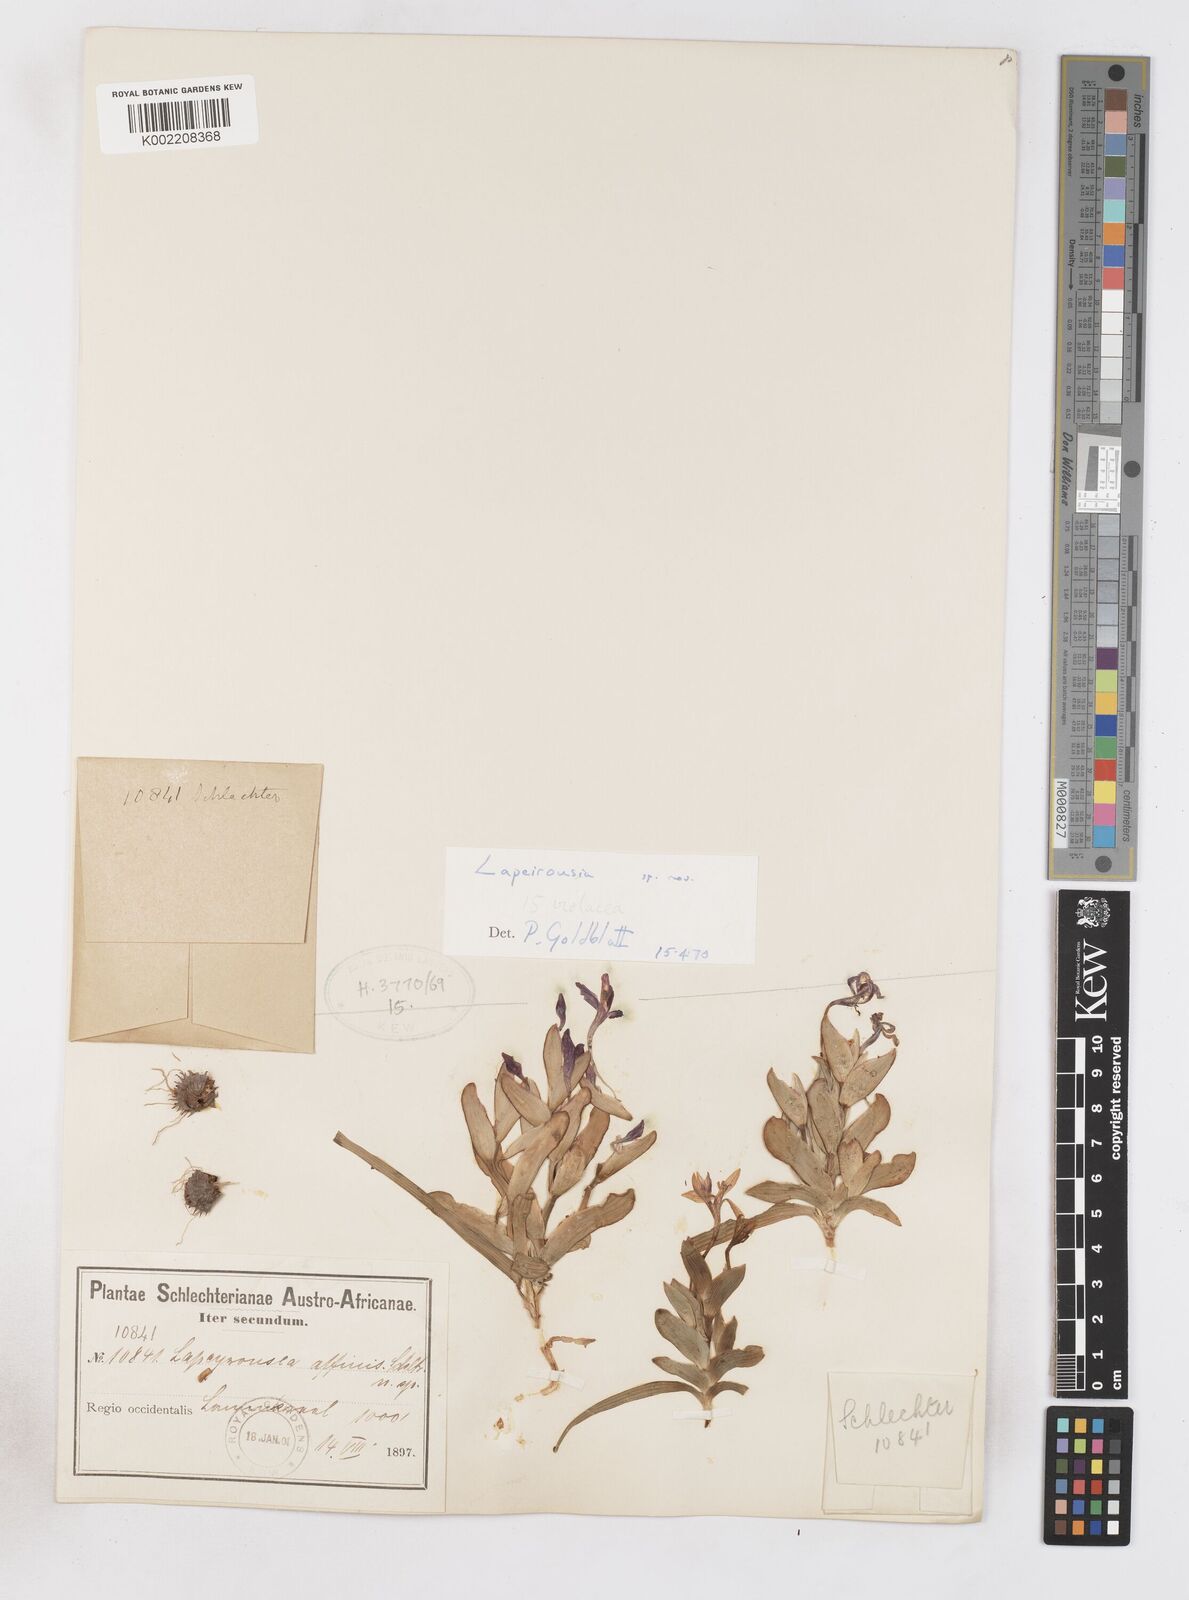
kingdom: Plantae
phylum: Tracheophyta
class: Liliopsida
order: Asparagales
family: Iridaceae
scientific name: Iridaceae
